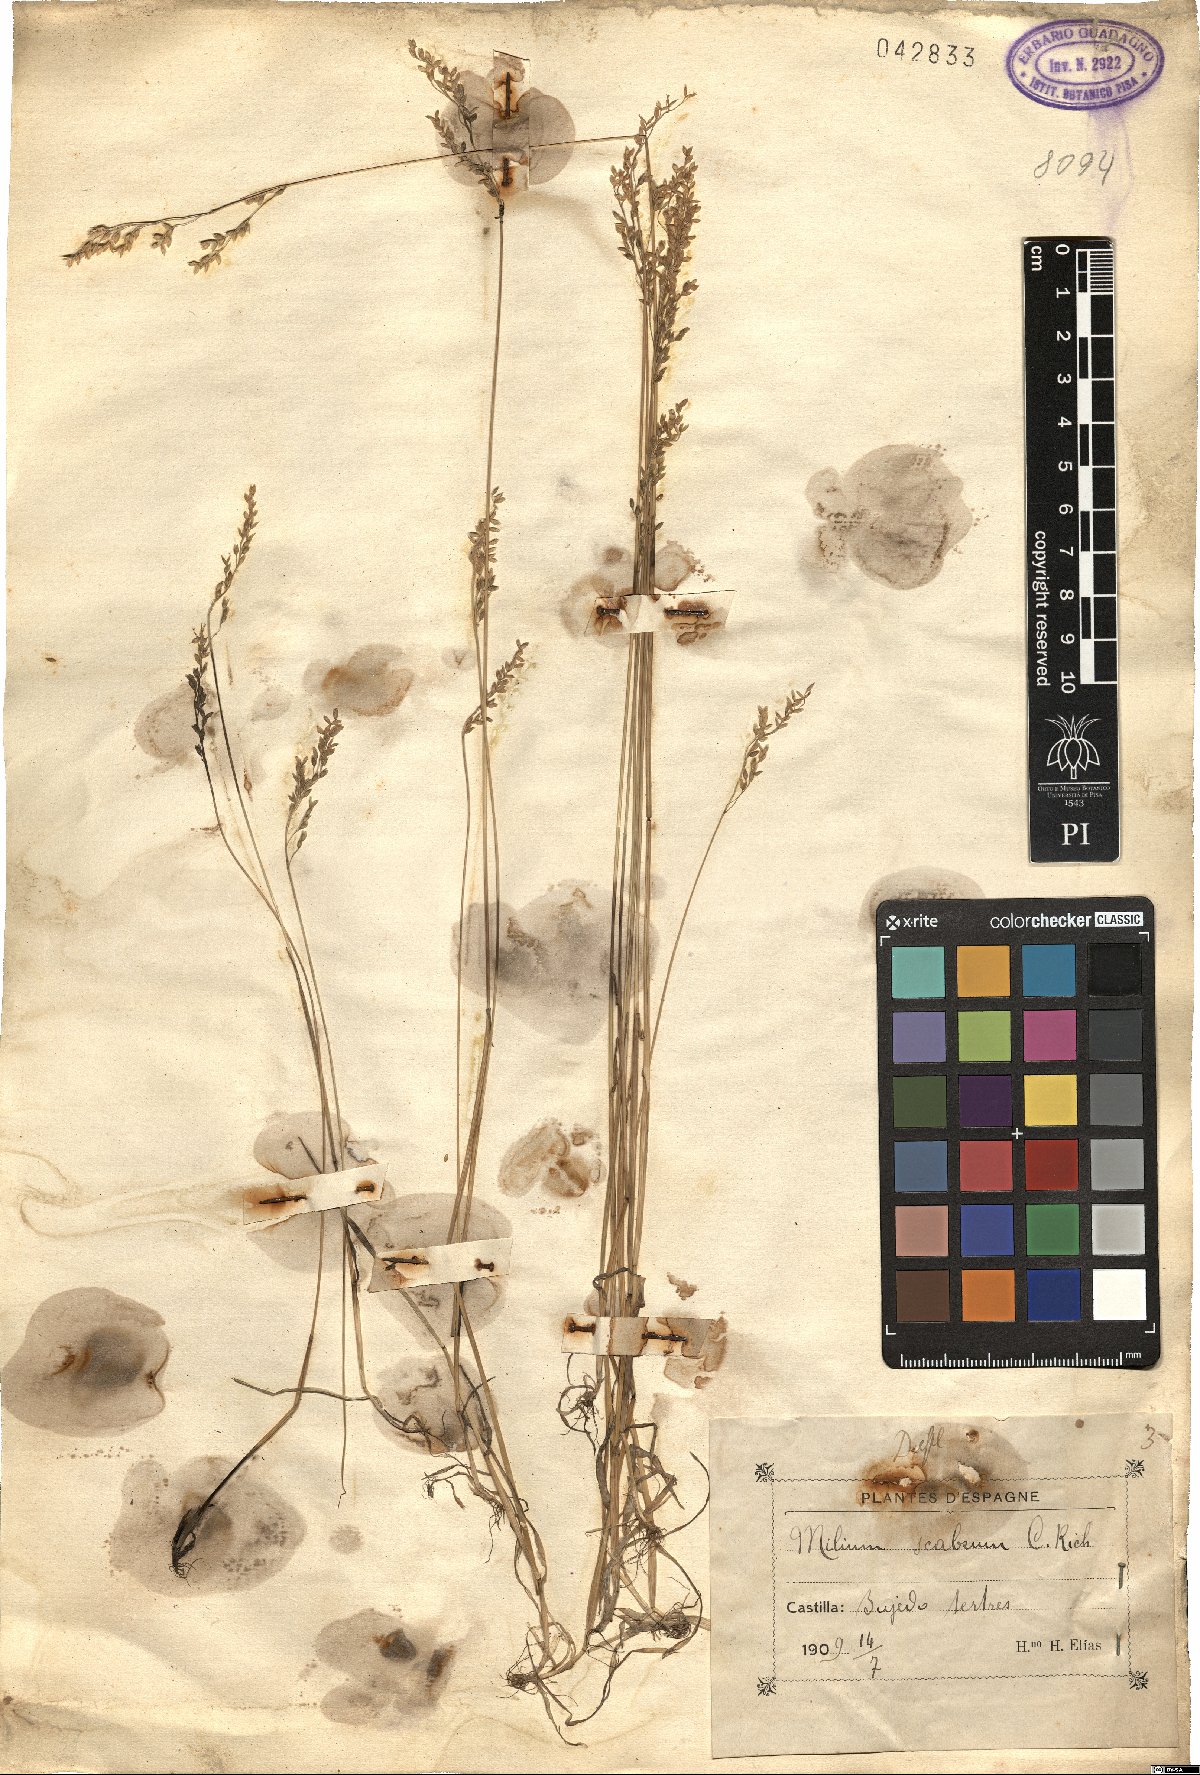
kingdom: Plantae
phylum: Tracheophyta
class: Liliopsida
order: Poales
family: Poaceae
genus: Milium
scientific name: Milium vernale
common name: Early millet
